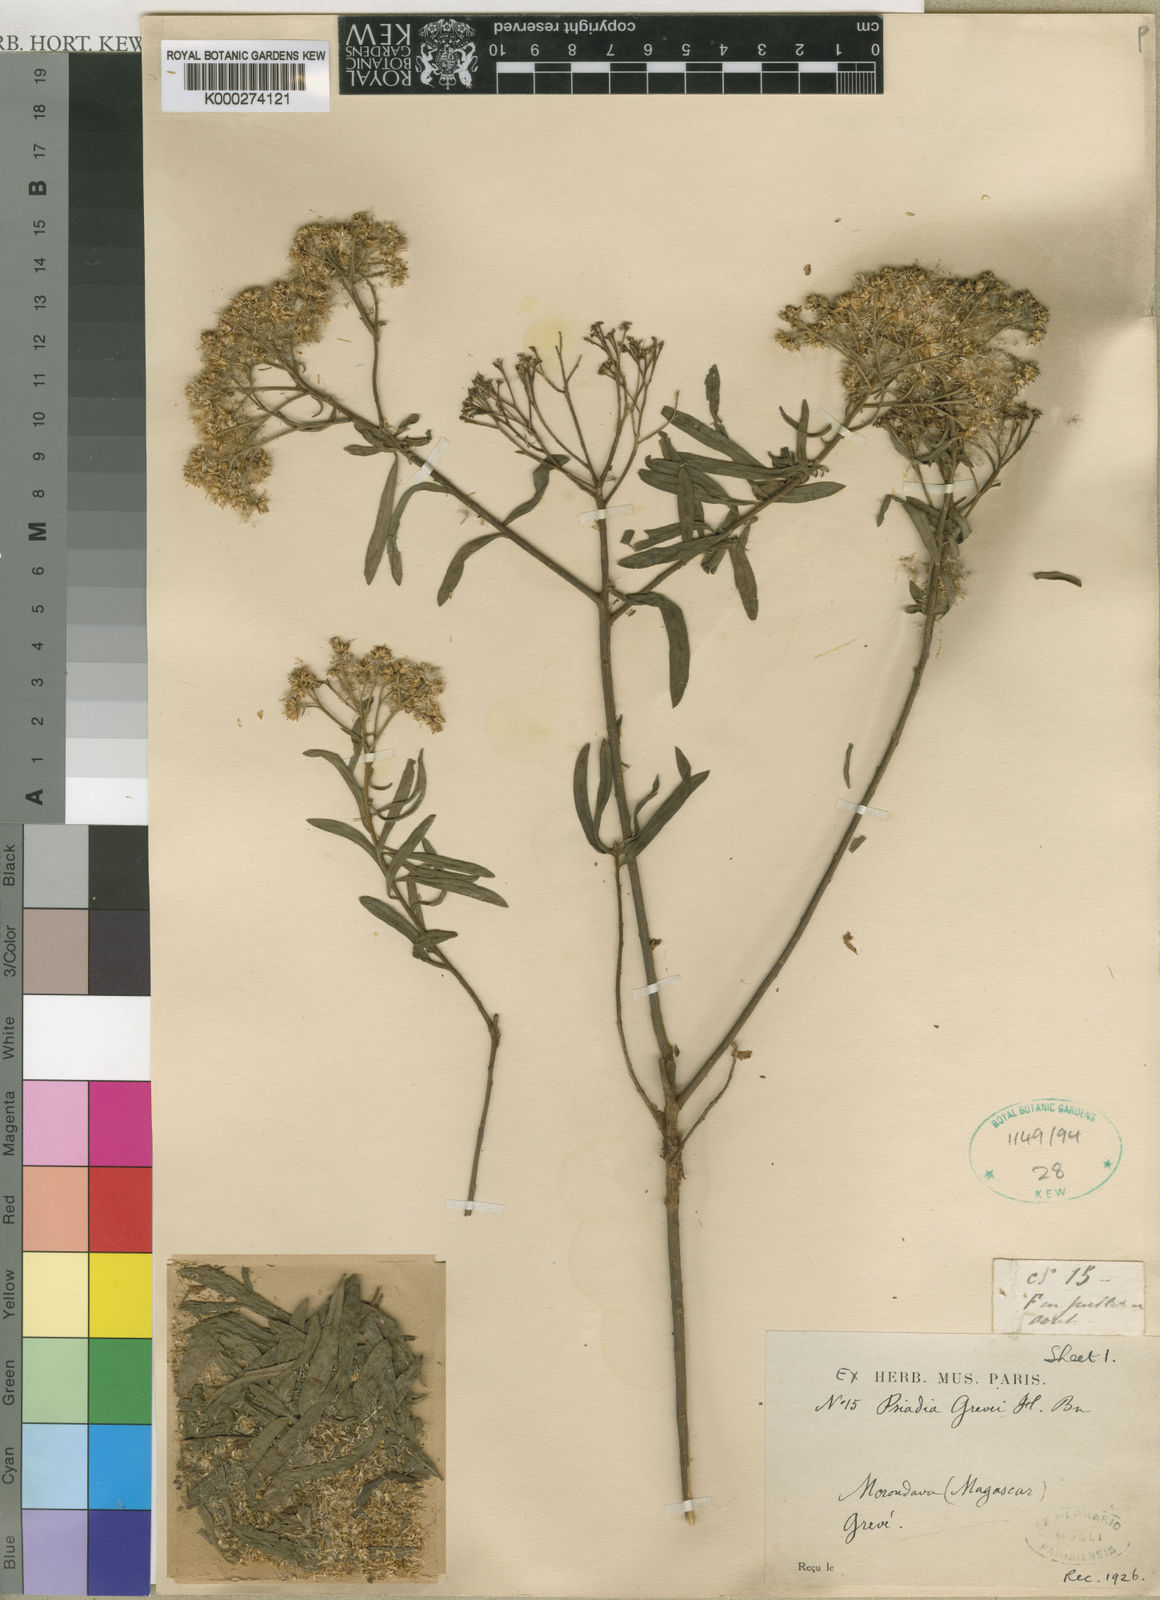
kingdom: Plantae
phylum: Tracheophyta
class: Magnoliopsida
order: Asterales
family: Asteraceae
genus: Pluchea
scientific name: Pluchea grevei
